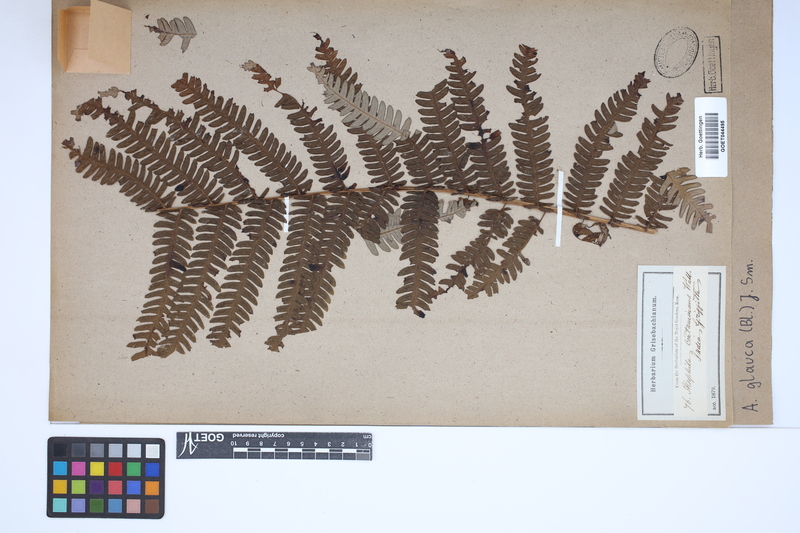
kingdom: Plantae
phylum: Tracheophyta
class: Polypodiopsida
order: Cyatheales
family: Cyatheaceae
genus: Sphaeropteris
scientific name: Sphaeropteris glauca
